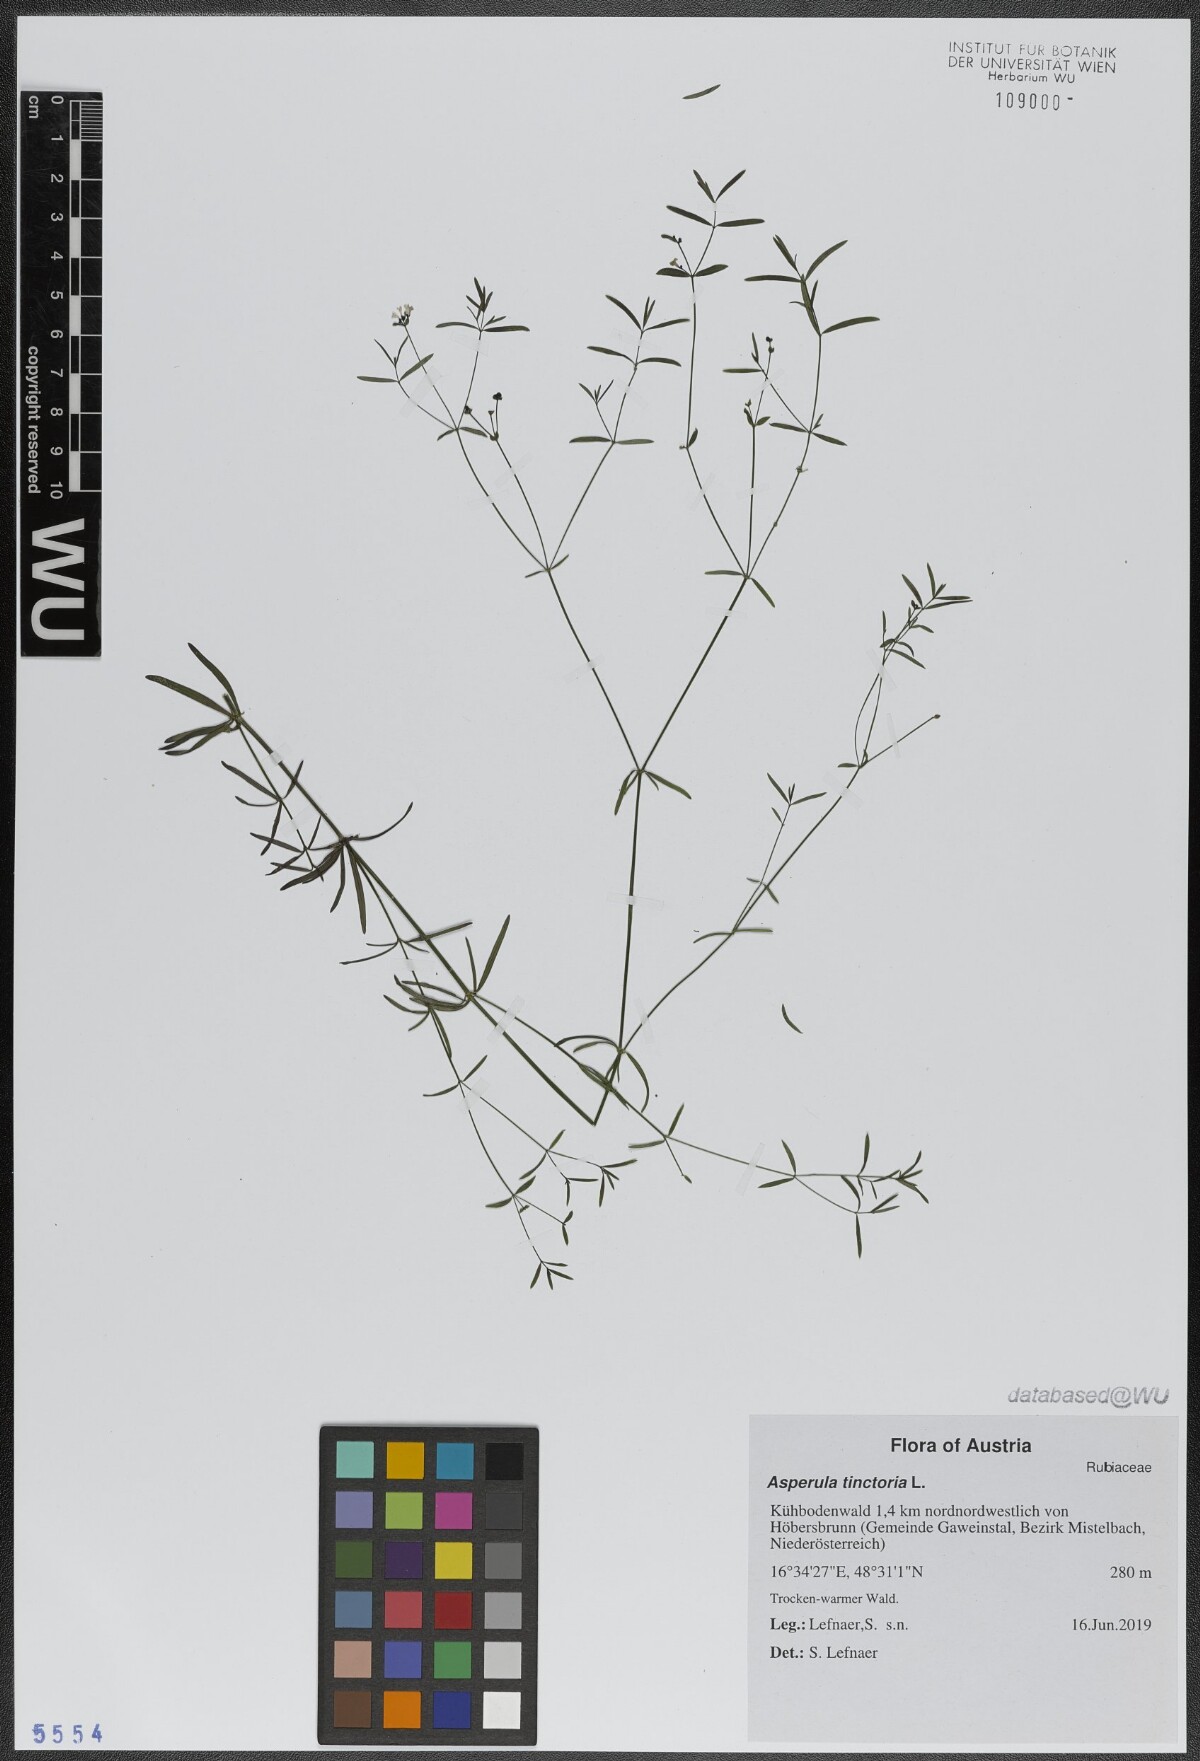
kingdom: Plantae
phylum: Tracheophyta
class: Magnoliopsida
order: Gentianales
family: Rubiaceae
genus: Asperula
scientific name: Asperula tinctoria
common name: Dyer's woodruff
